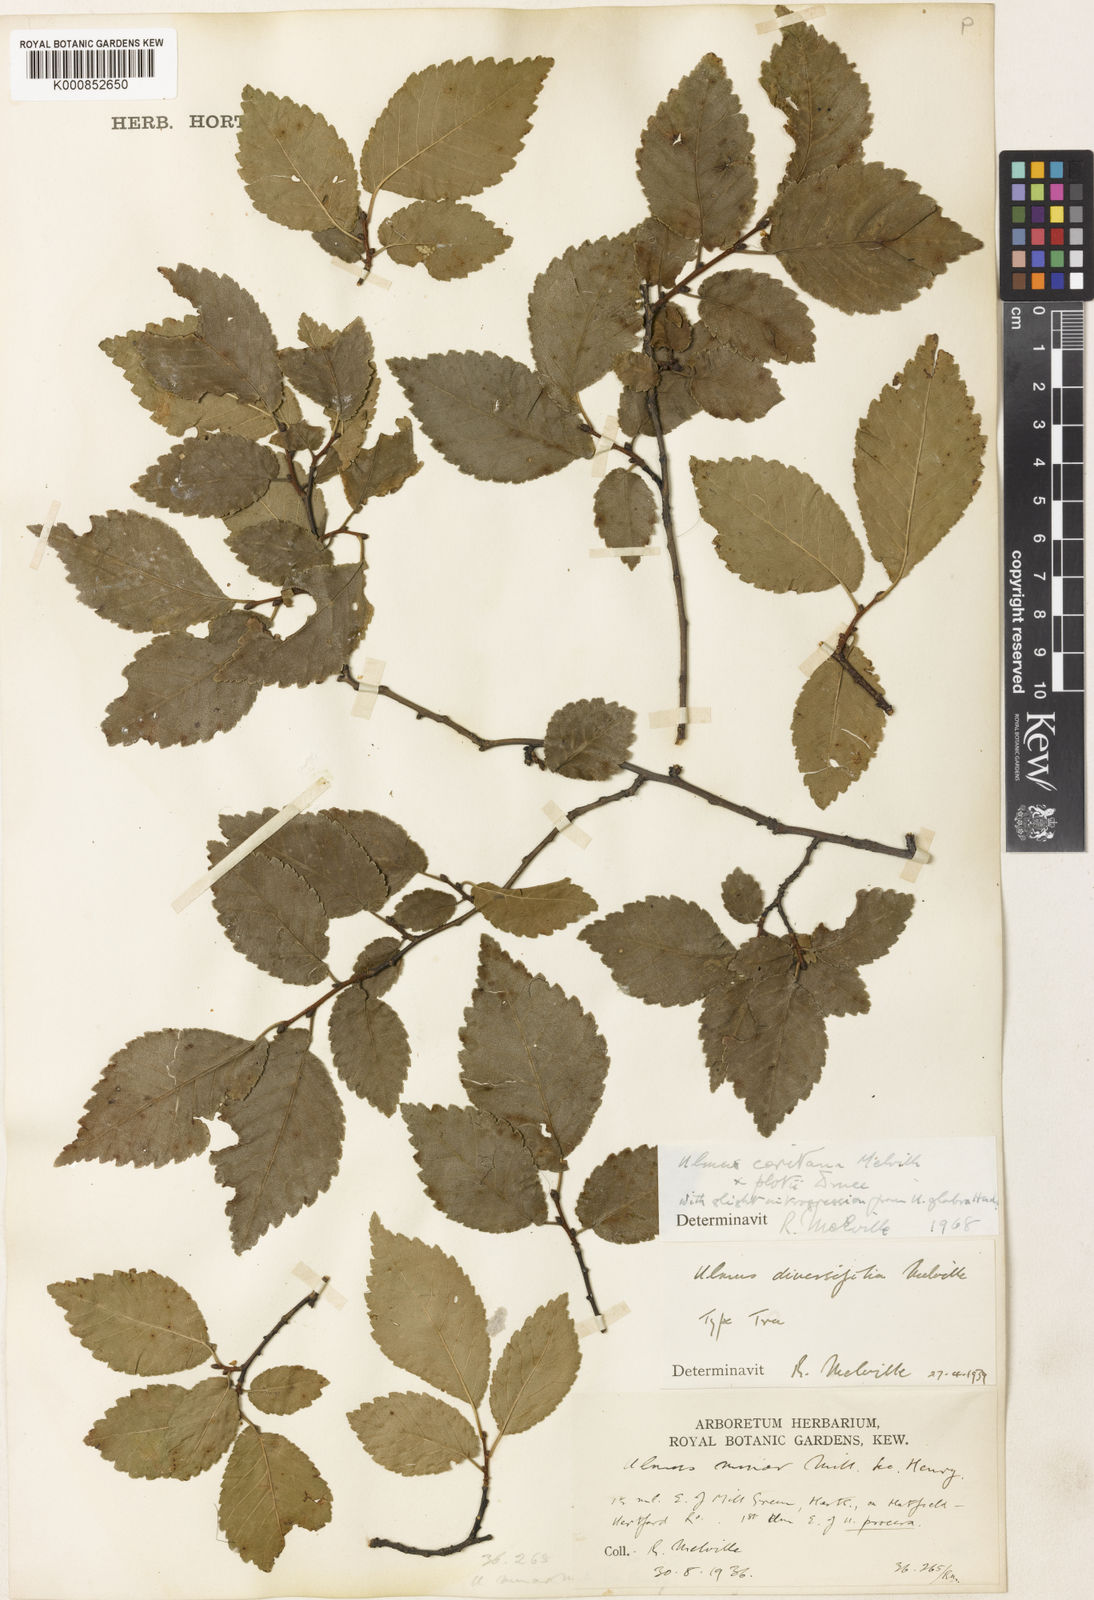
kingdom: Plantae
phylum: Tracheophyta
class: Magnoliopsida
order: Rosales
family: Ulmaceae
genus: Ulmus
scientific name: Ulmus minor
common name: Small-leaved elm
